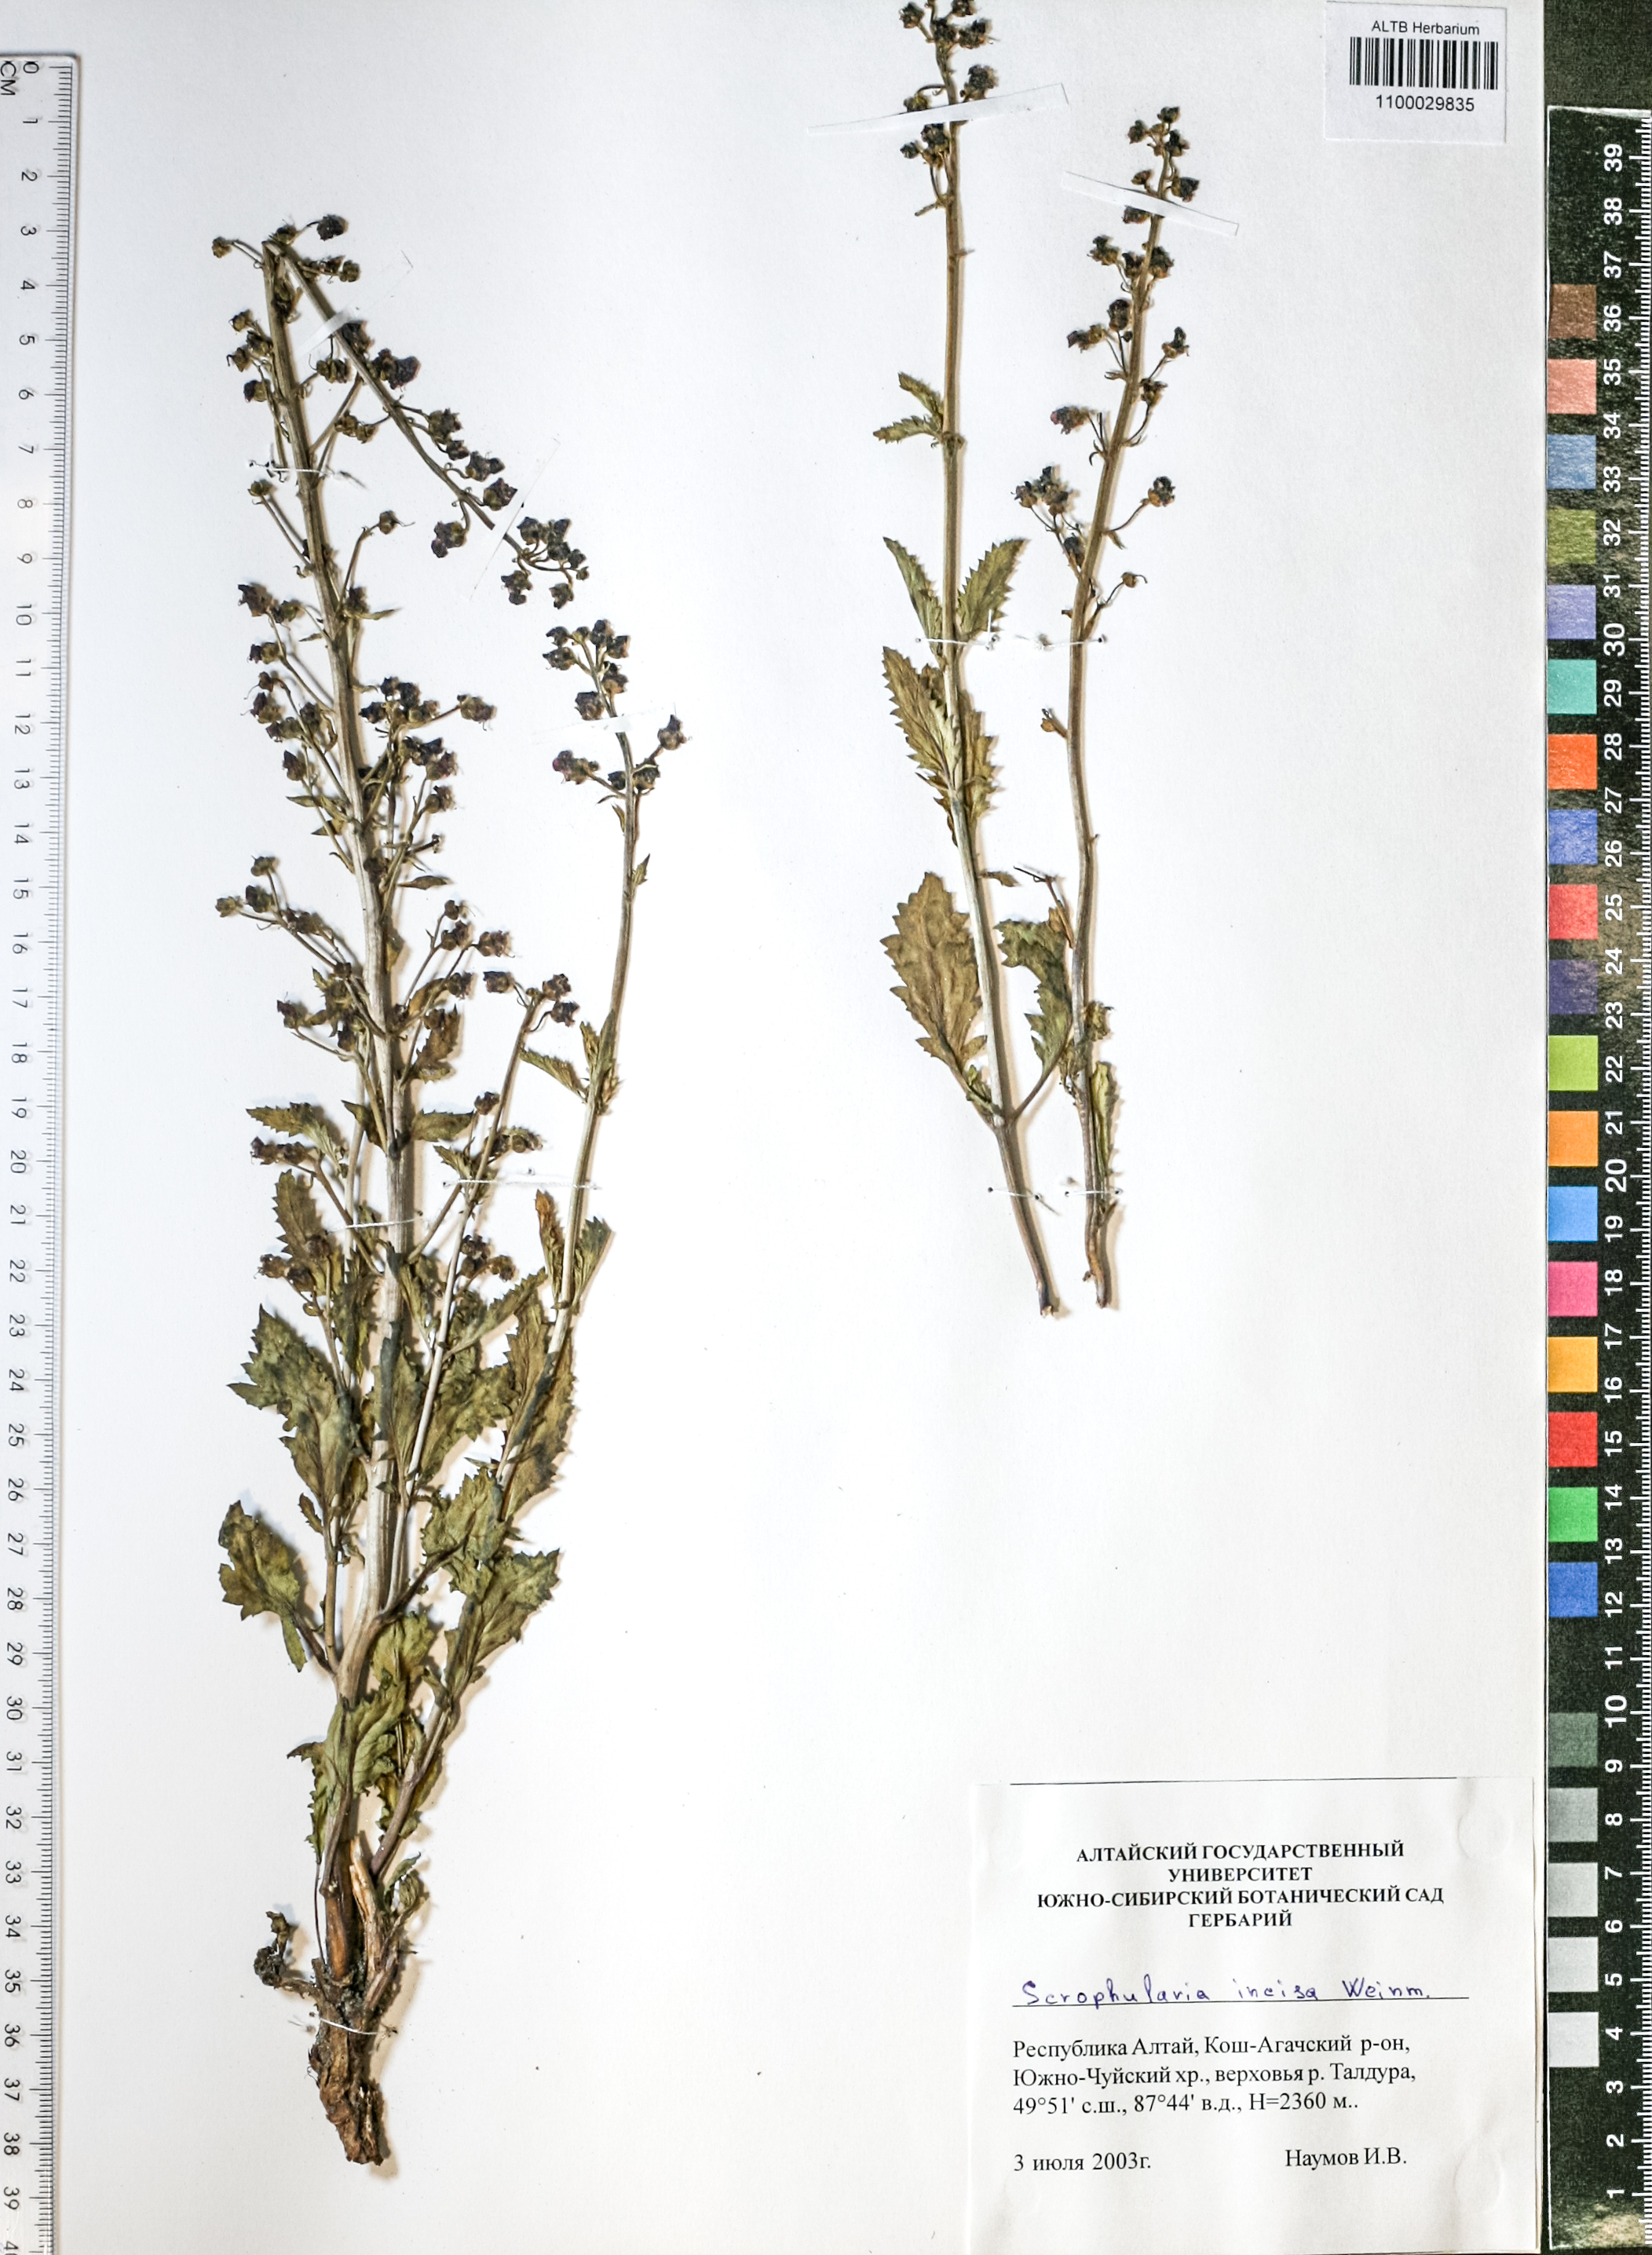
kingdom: Plantae
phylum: Tracheophyta
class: Magnoliopsida
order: Lamiales
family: Scrophulariaceae
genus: Scrophularia
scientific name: Scrophularia incisa
